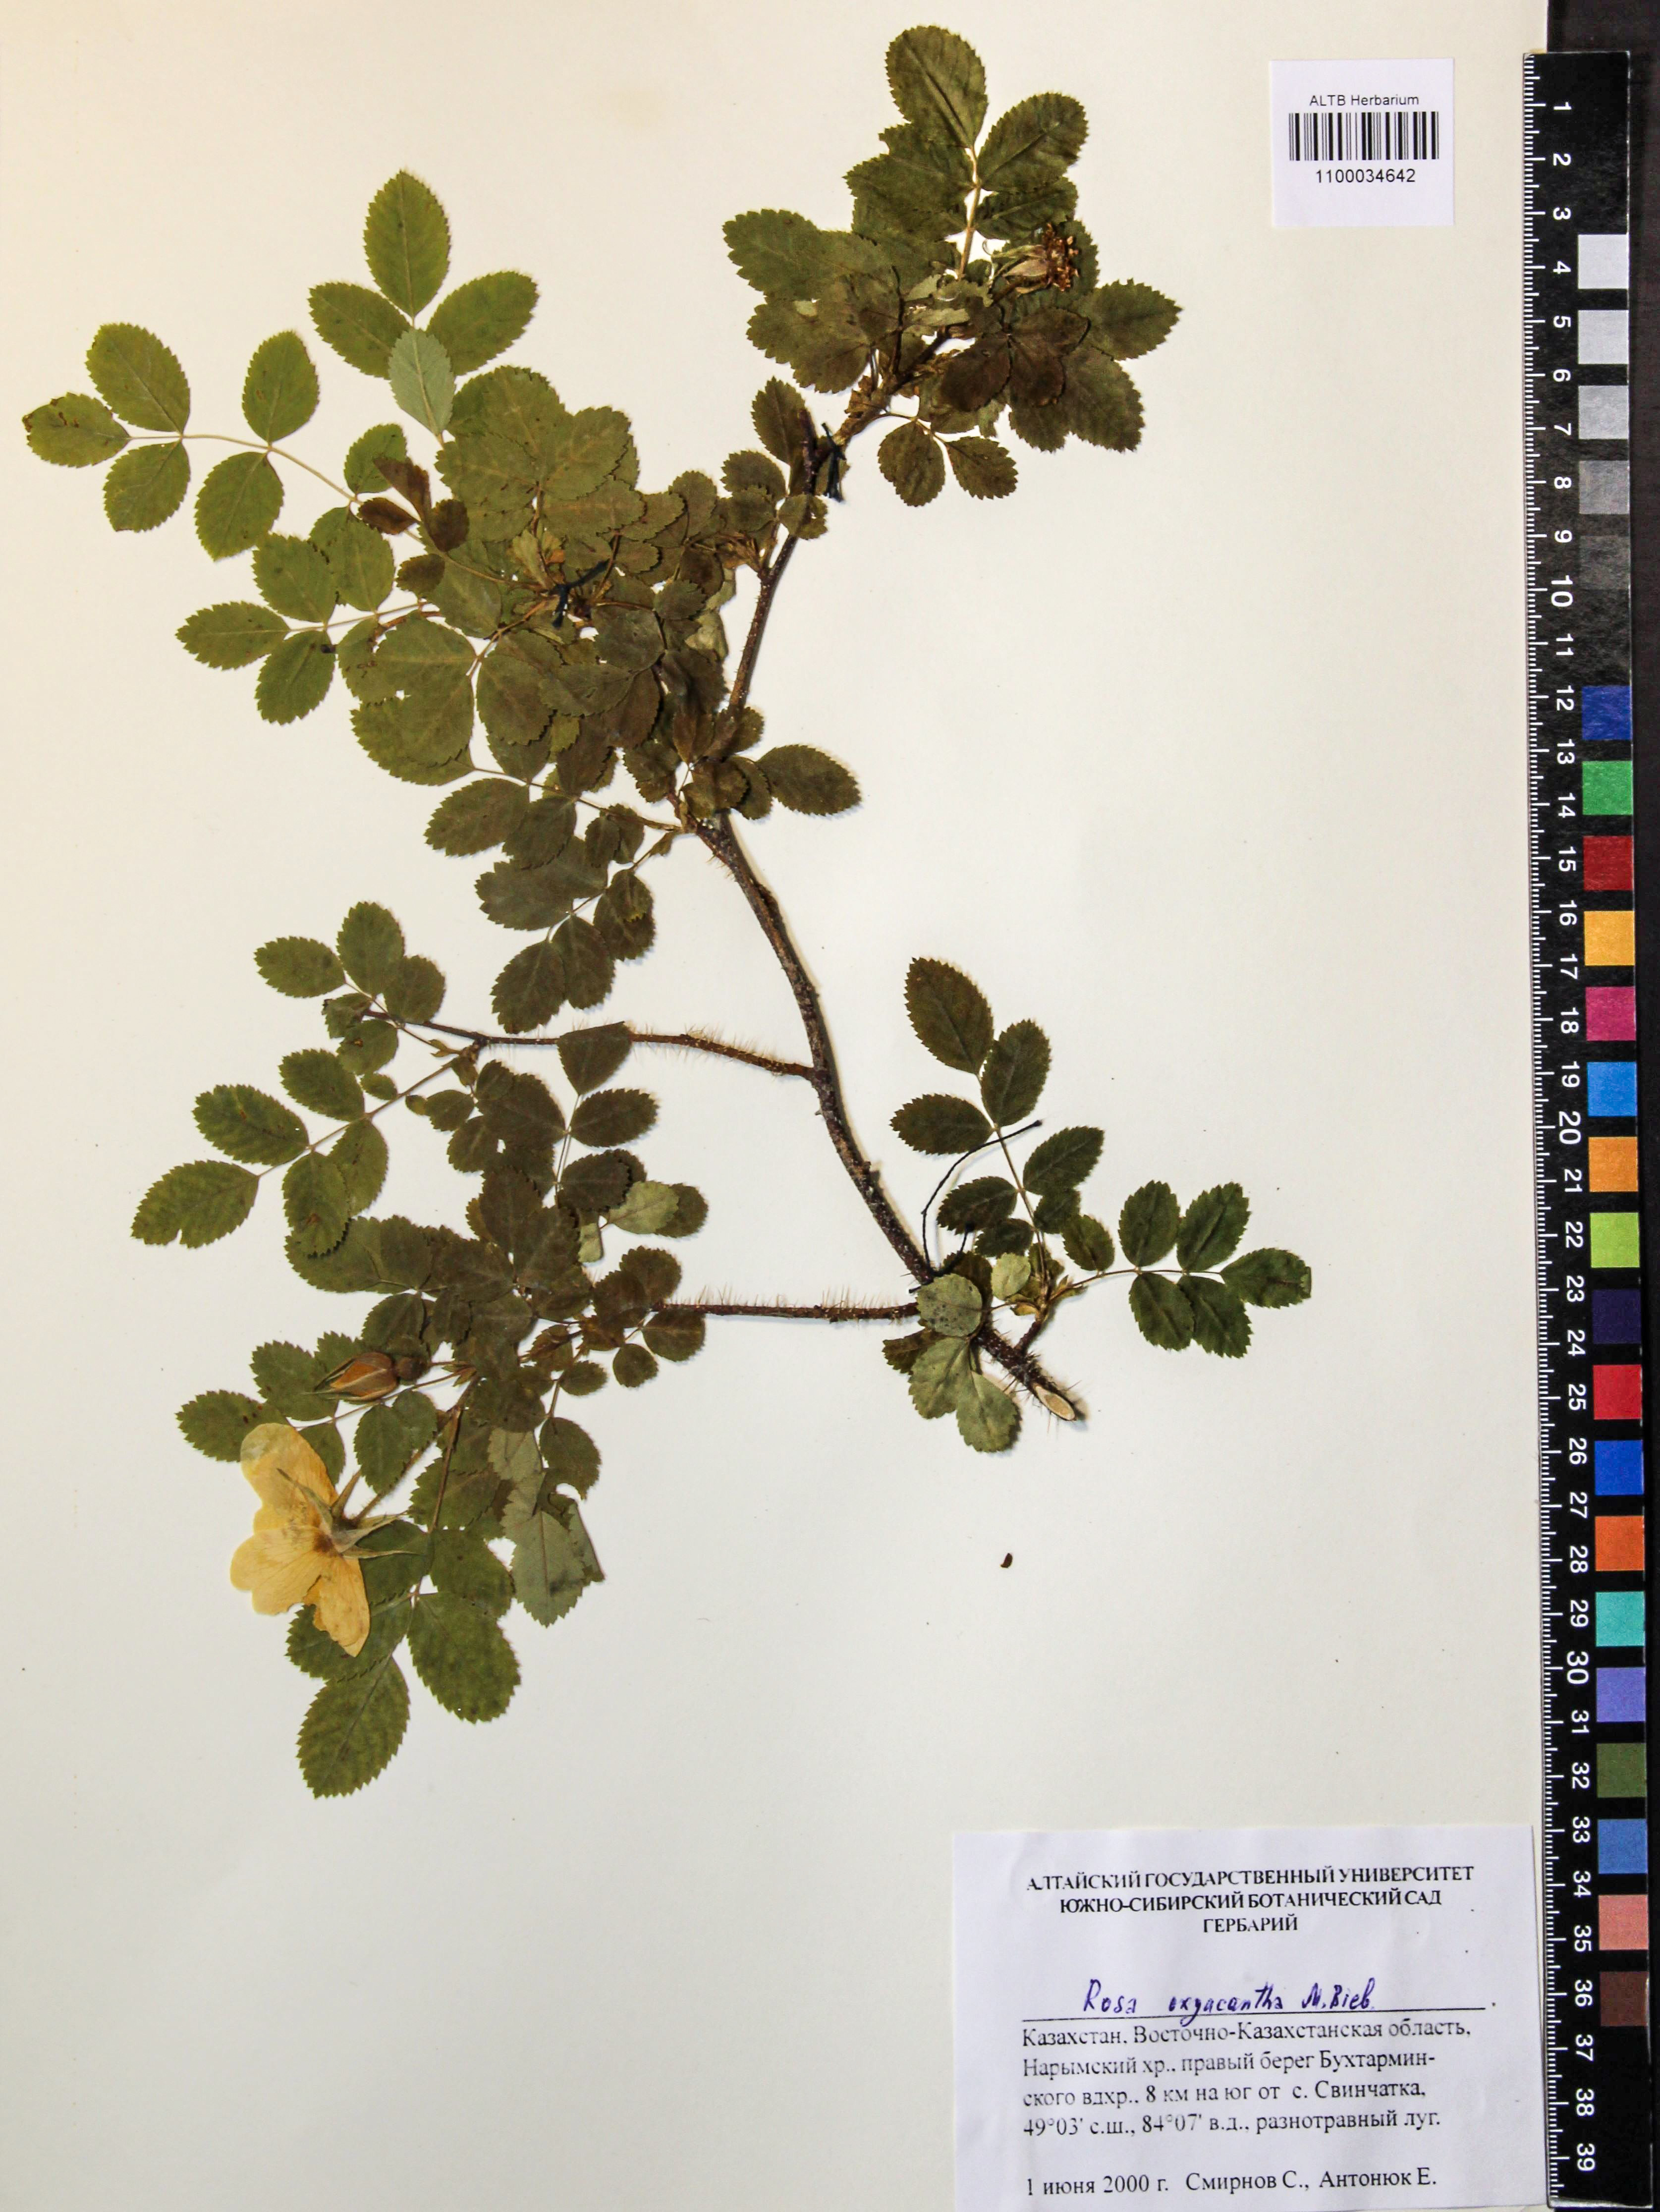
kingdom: Plantae
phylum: Tracheophyta
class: Magnoliopsida
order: Rosales
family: Rosaceae
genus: Rosa
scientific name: Rosa oxyacantha
